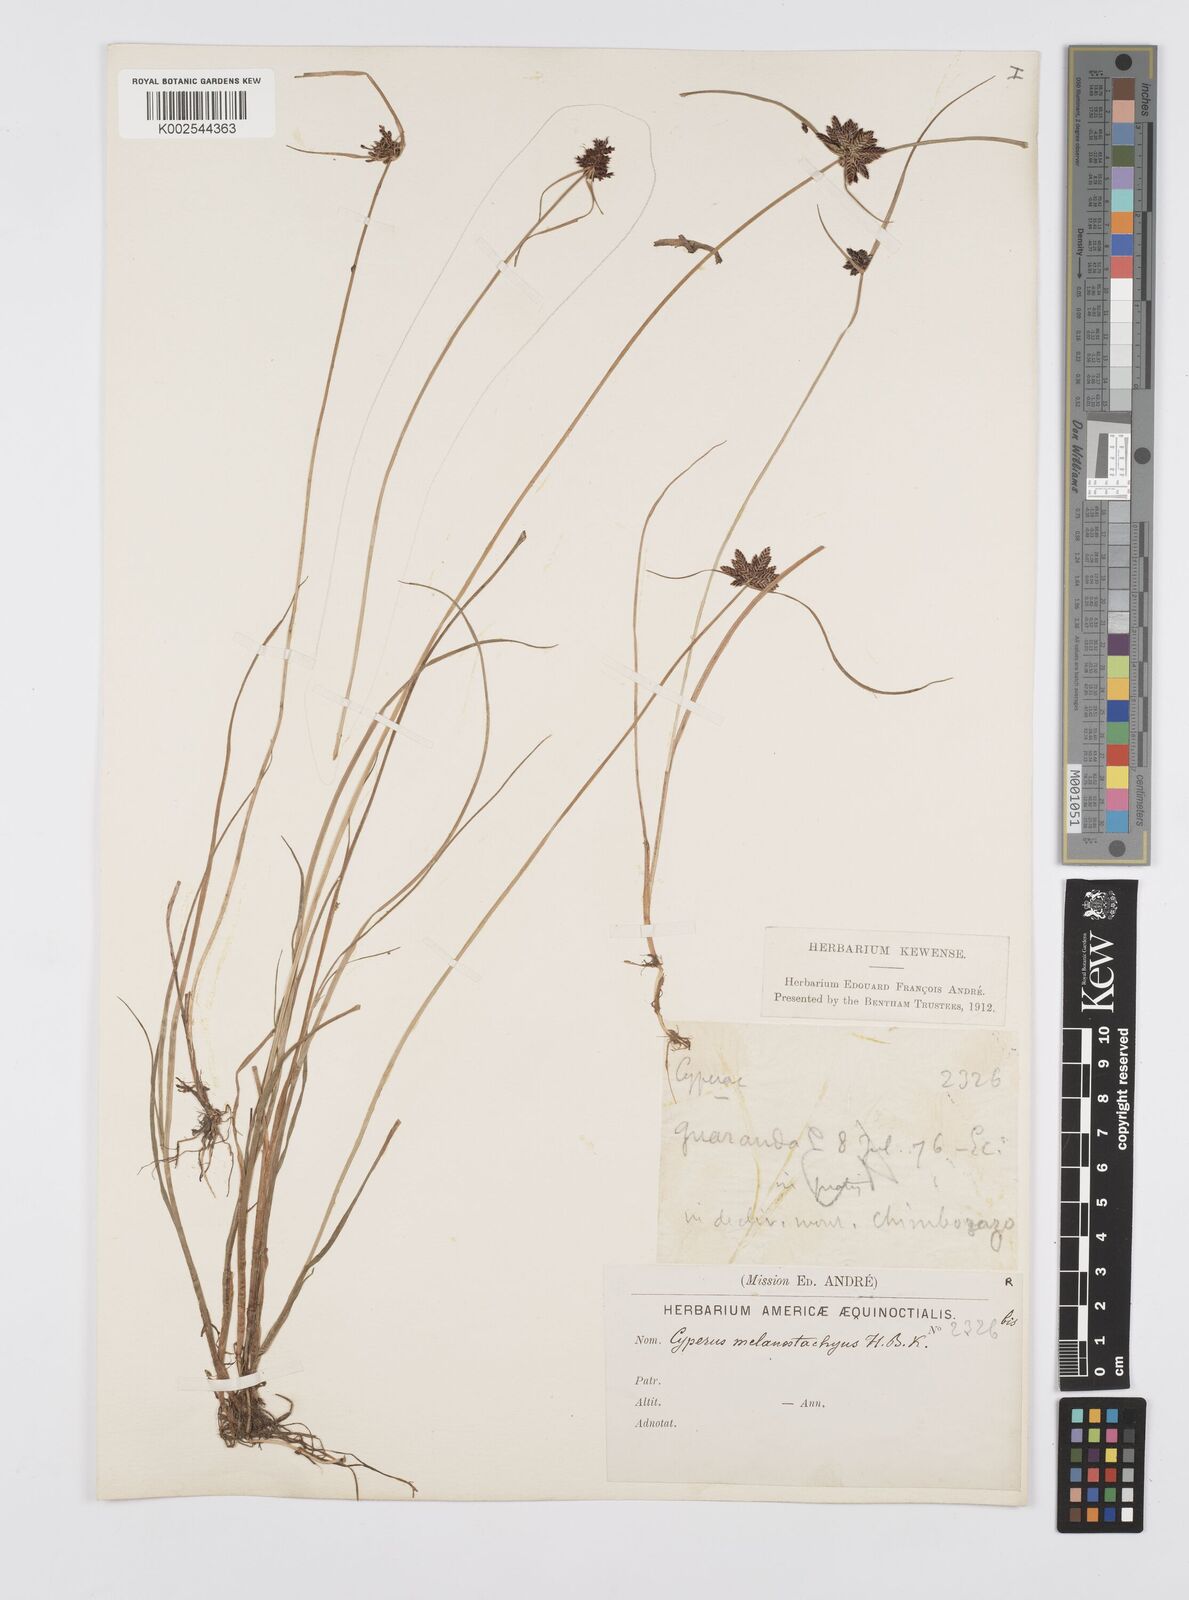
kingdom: Plantae
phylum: Tracheophyta
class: Liliopsida
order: Poales
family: Cyperaceae
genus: Cyperus
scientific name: Cyperus melanostachyus
